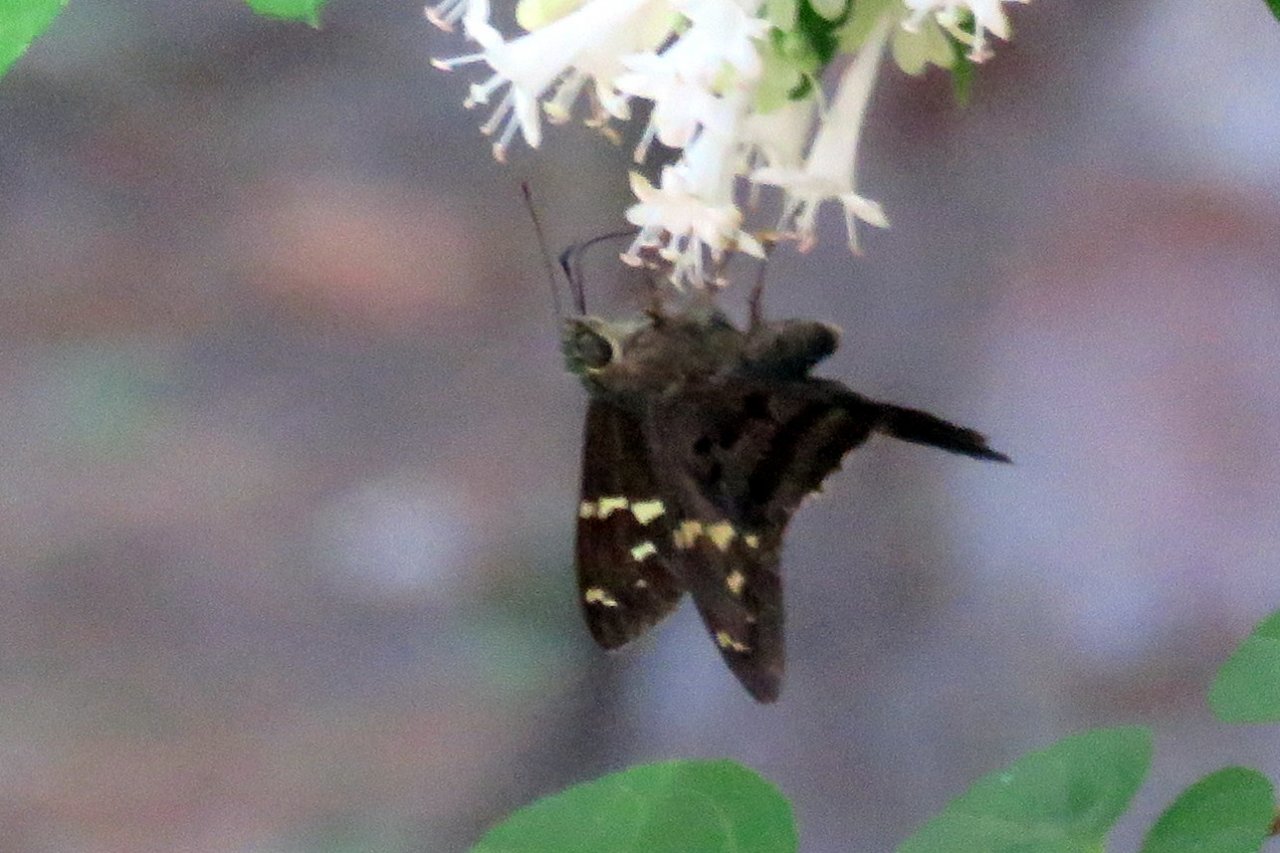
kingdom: Animalia
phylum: Arthropoda
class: Insecta
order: Lepidoptera
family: Hesperiidae
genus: Urbanus
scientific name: Urbanus proteus
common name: Long-tailed Skipper
